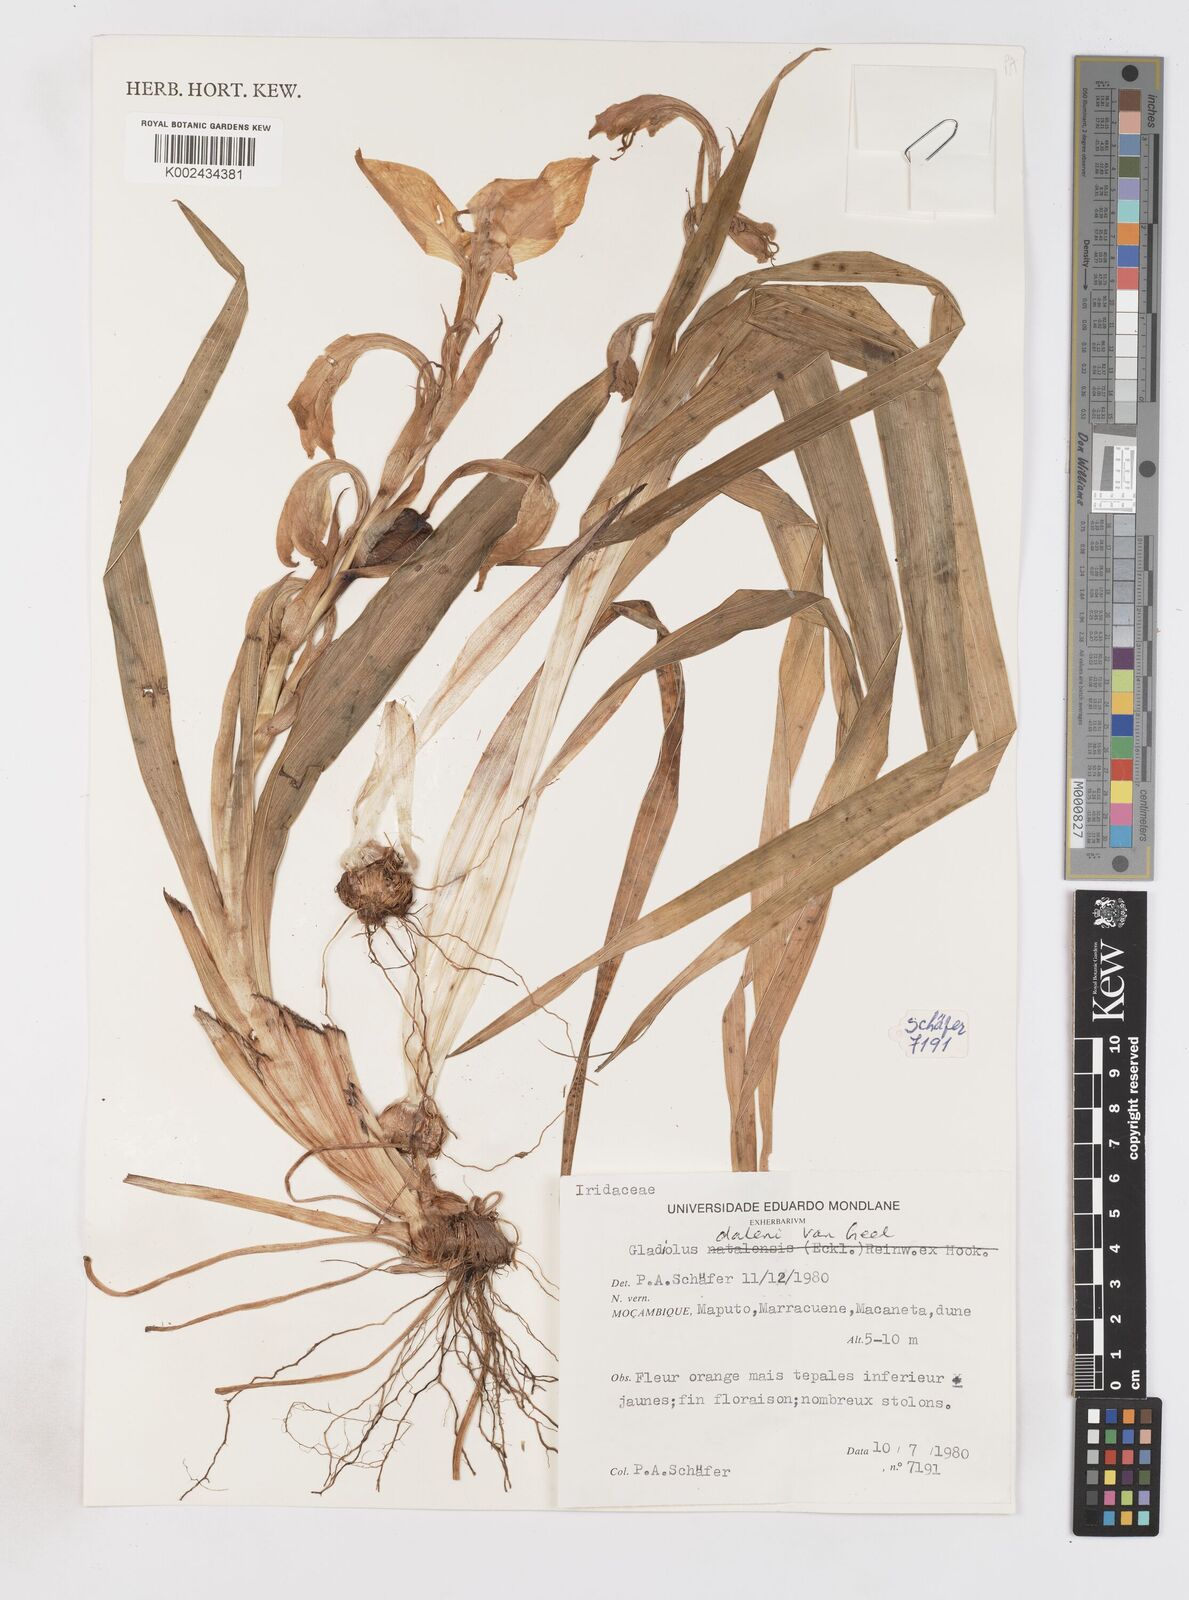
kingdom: Plantae
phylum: Tracheophyta
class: Liliopsida
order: Asparagales
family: Iridaceae
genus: Gladiolus
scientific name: Gladiolus dalenii
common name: Cornflag
